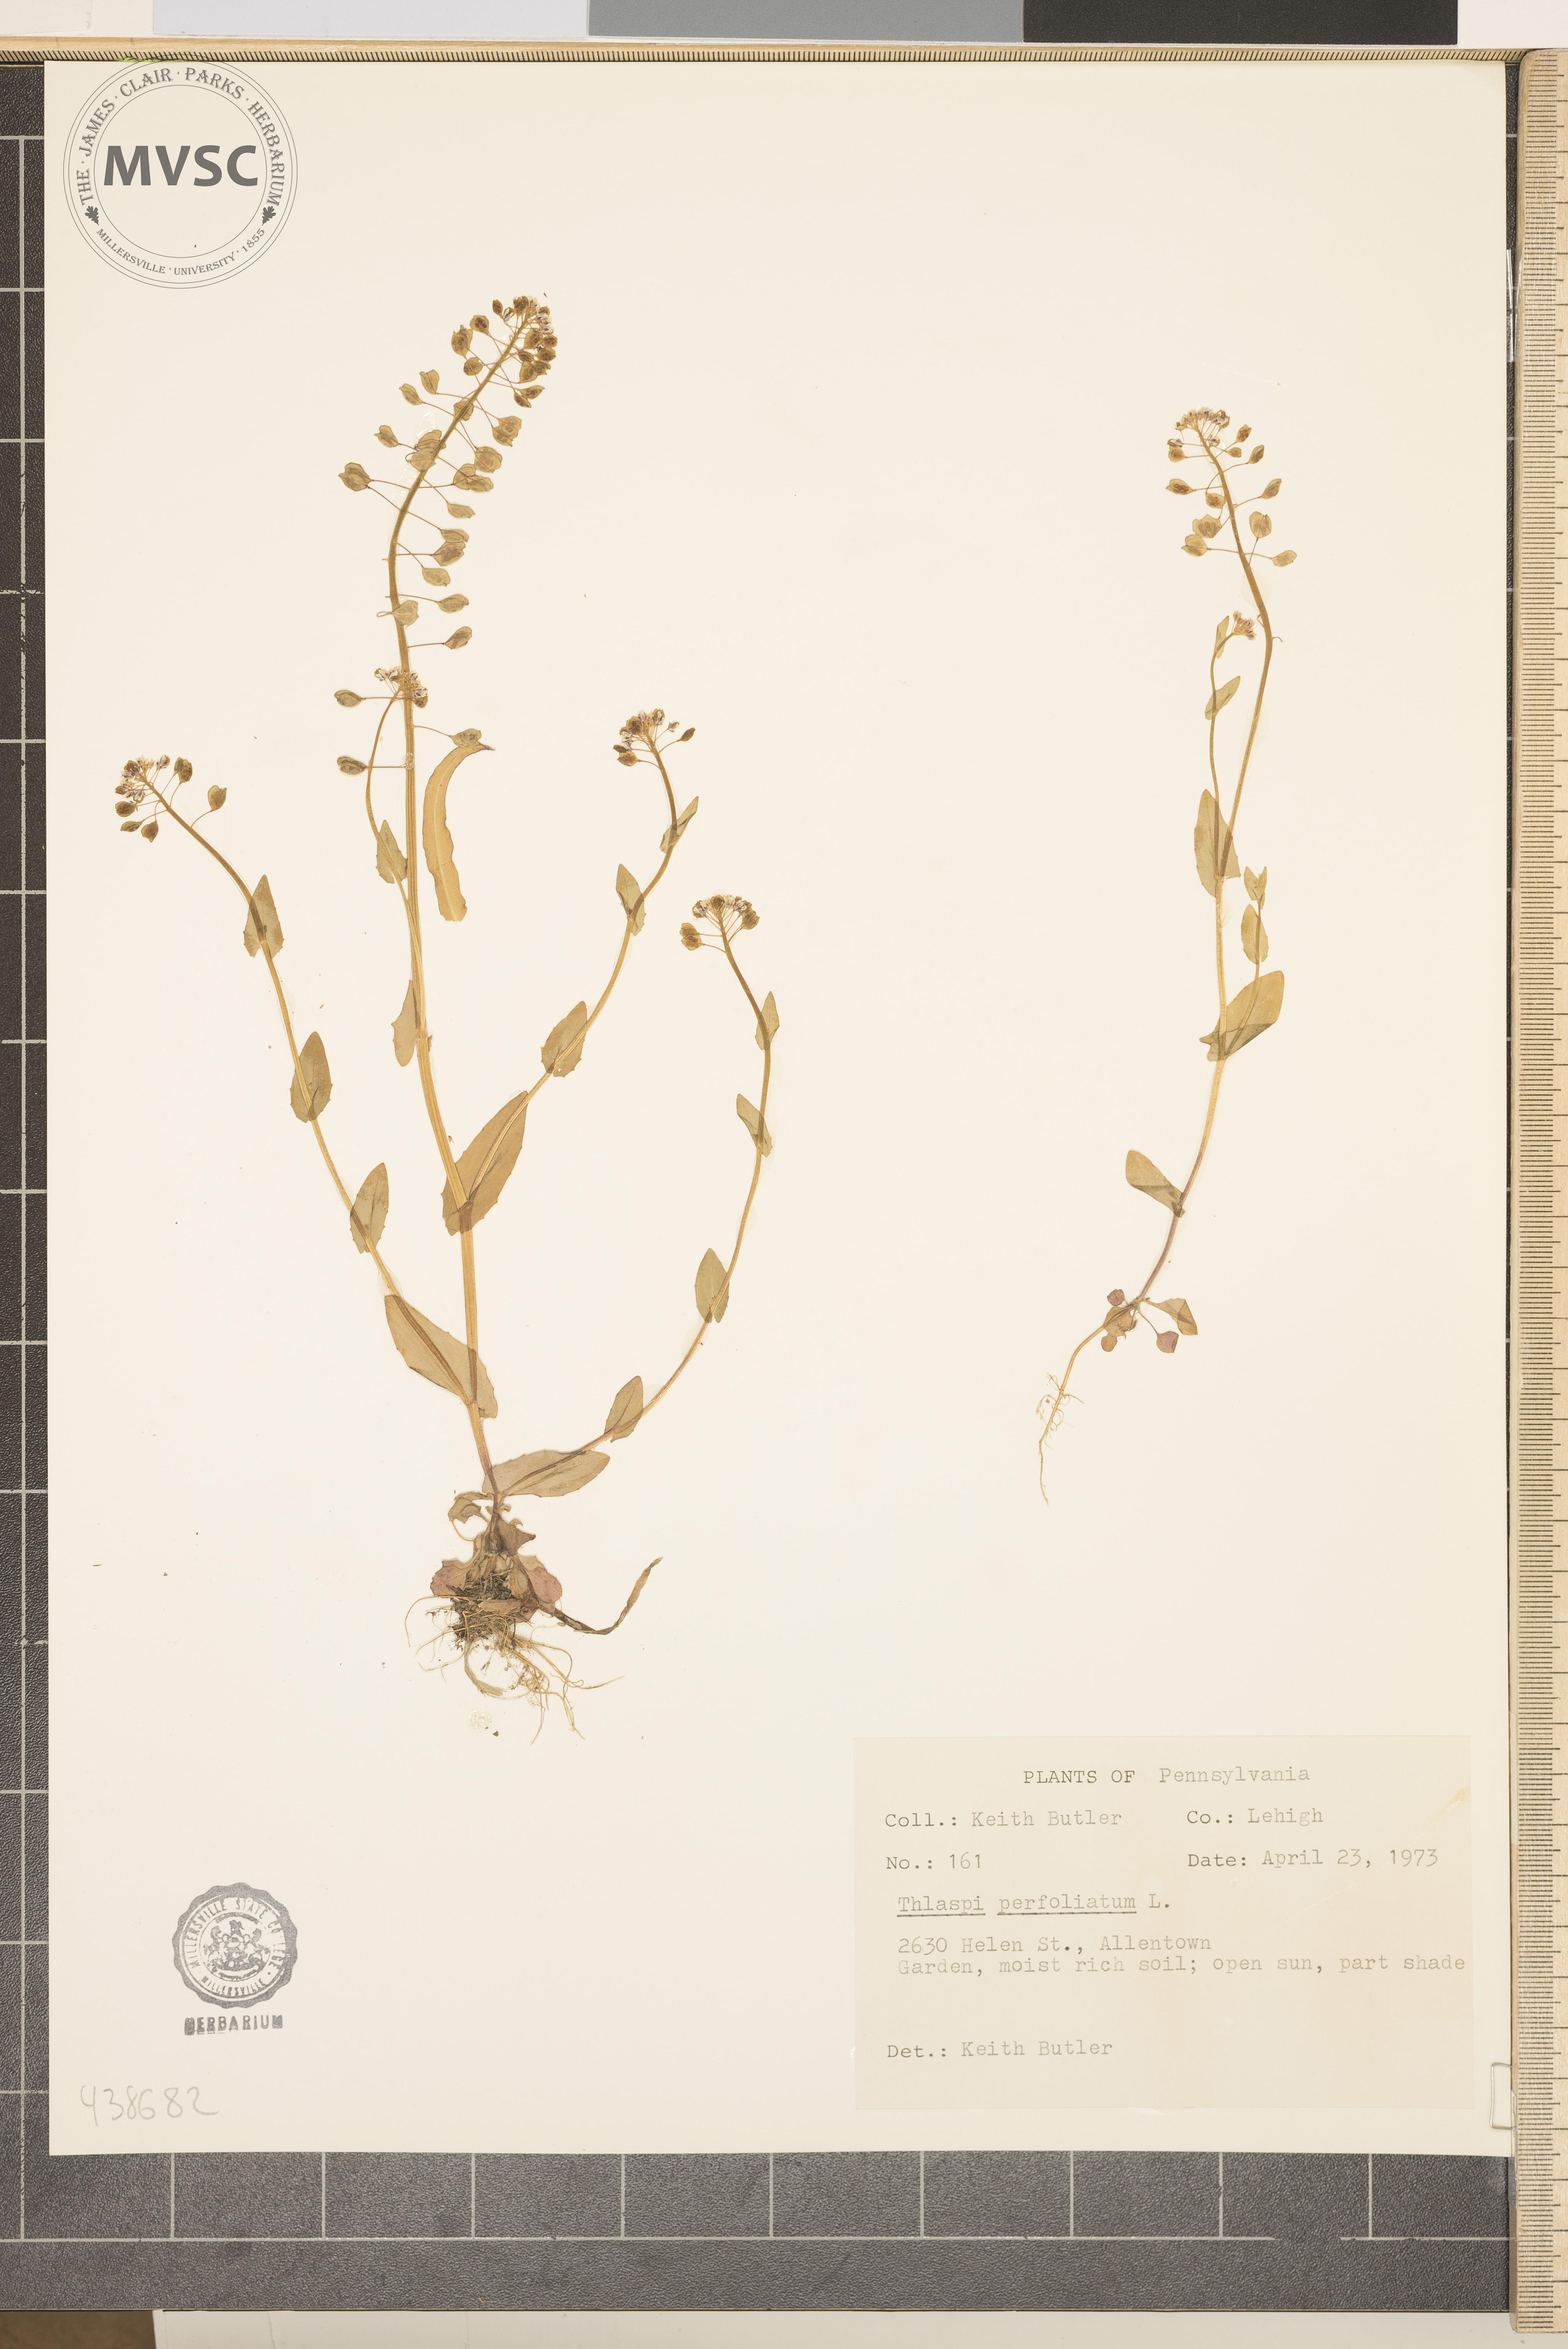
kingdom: Plantae
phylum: Tracheophyta
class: Magnoliopsida
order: Brassicales
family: Brassicaceae
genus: Noccaea
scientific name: Noccaea perfoliata
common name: Perfoliate pennycress
